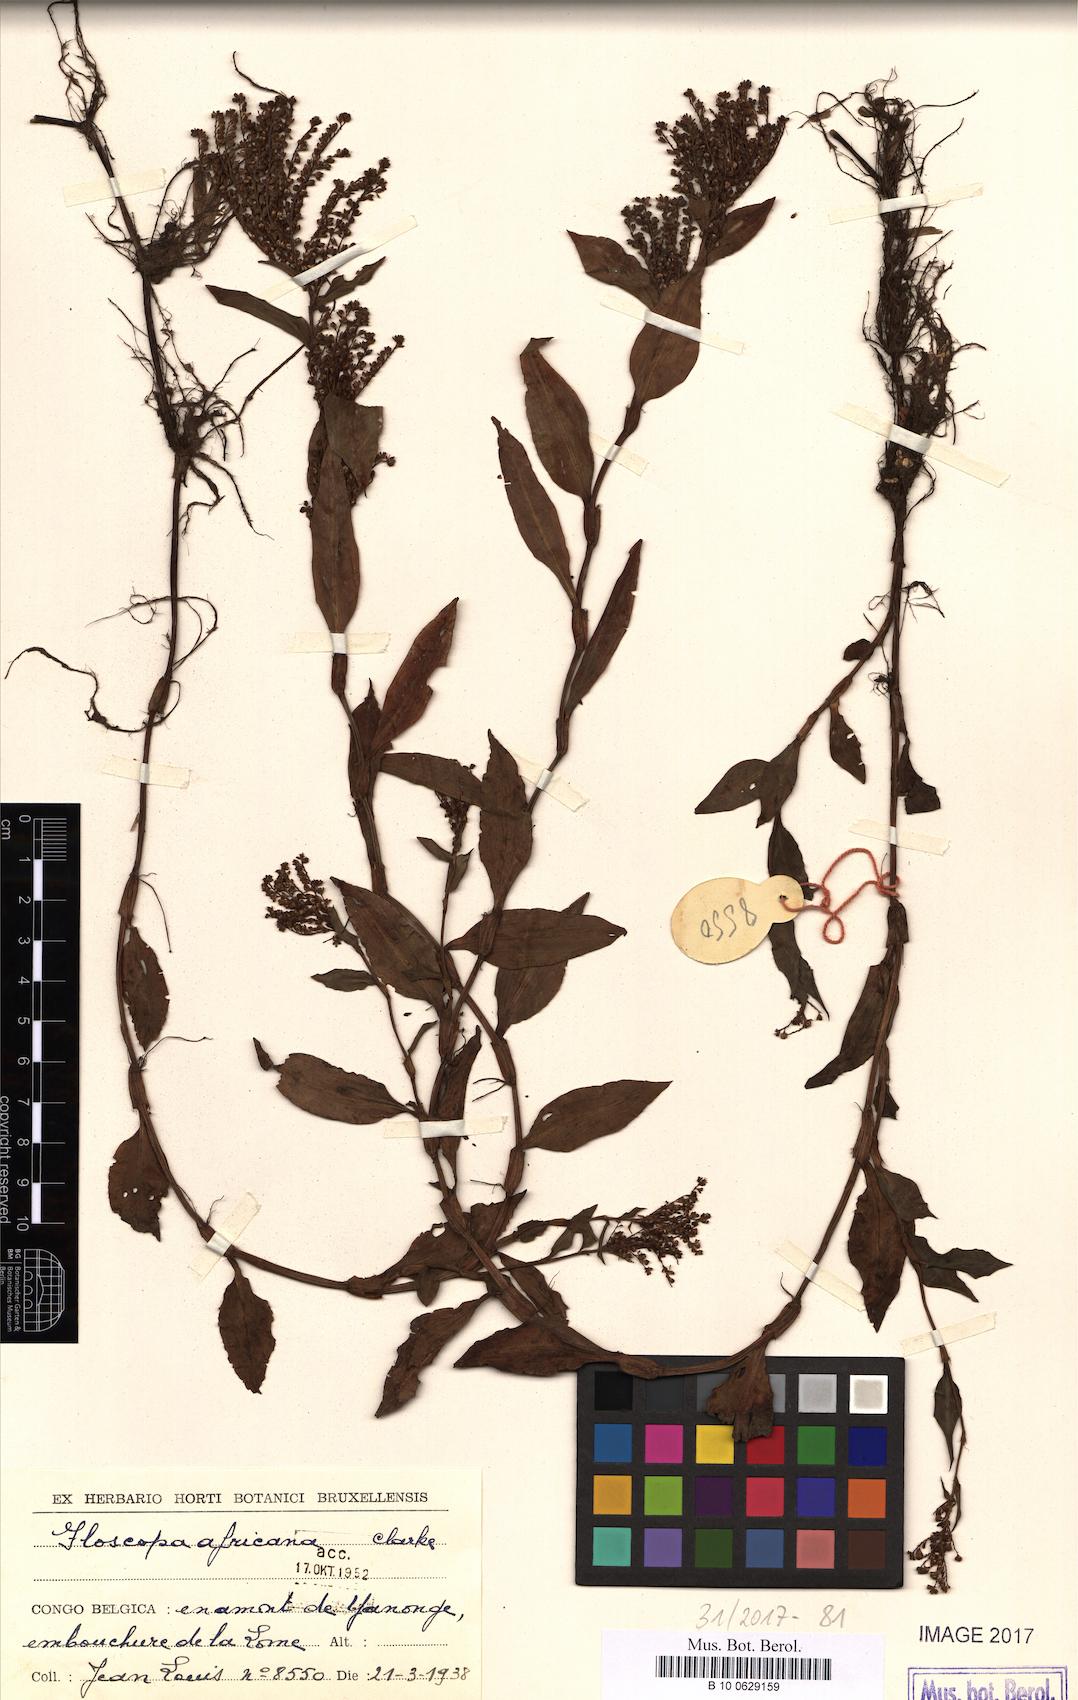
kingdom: Plantae
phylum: Tracheophyta
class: Liliopsida
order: Commelinales
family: Commelinaceae
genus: Floscopa
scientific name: Floscopa africana
